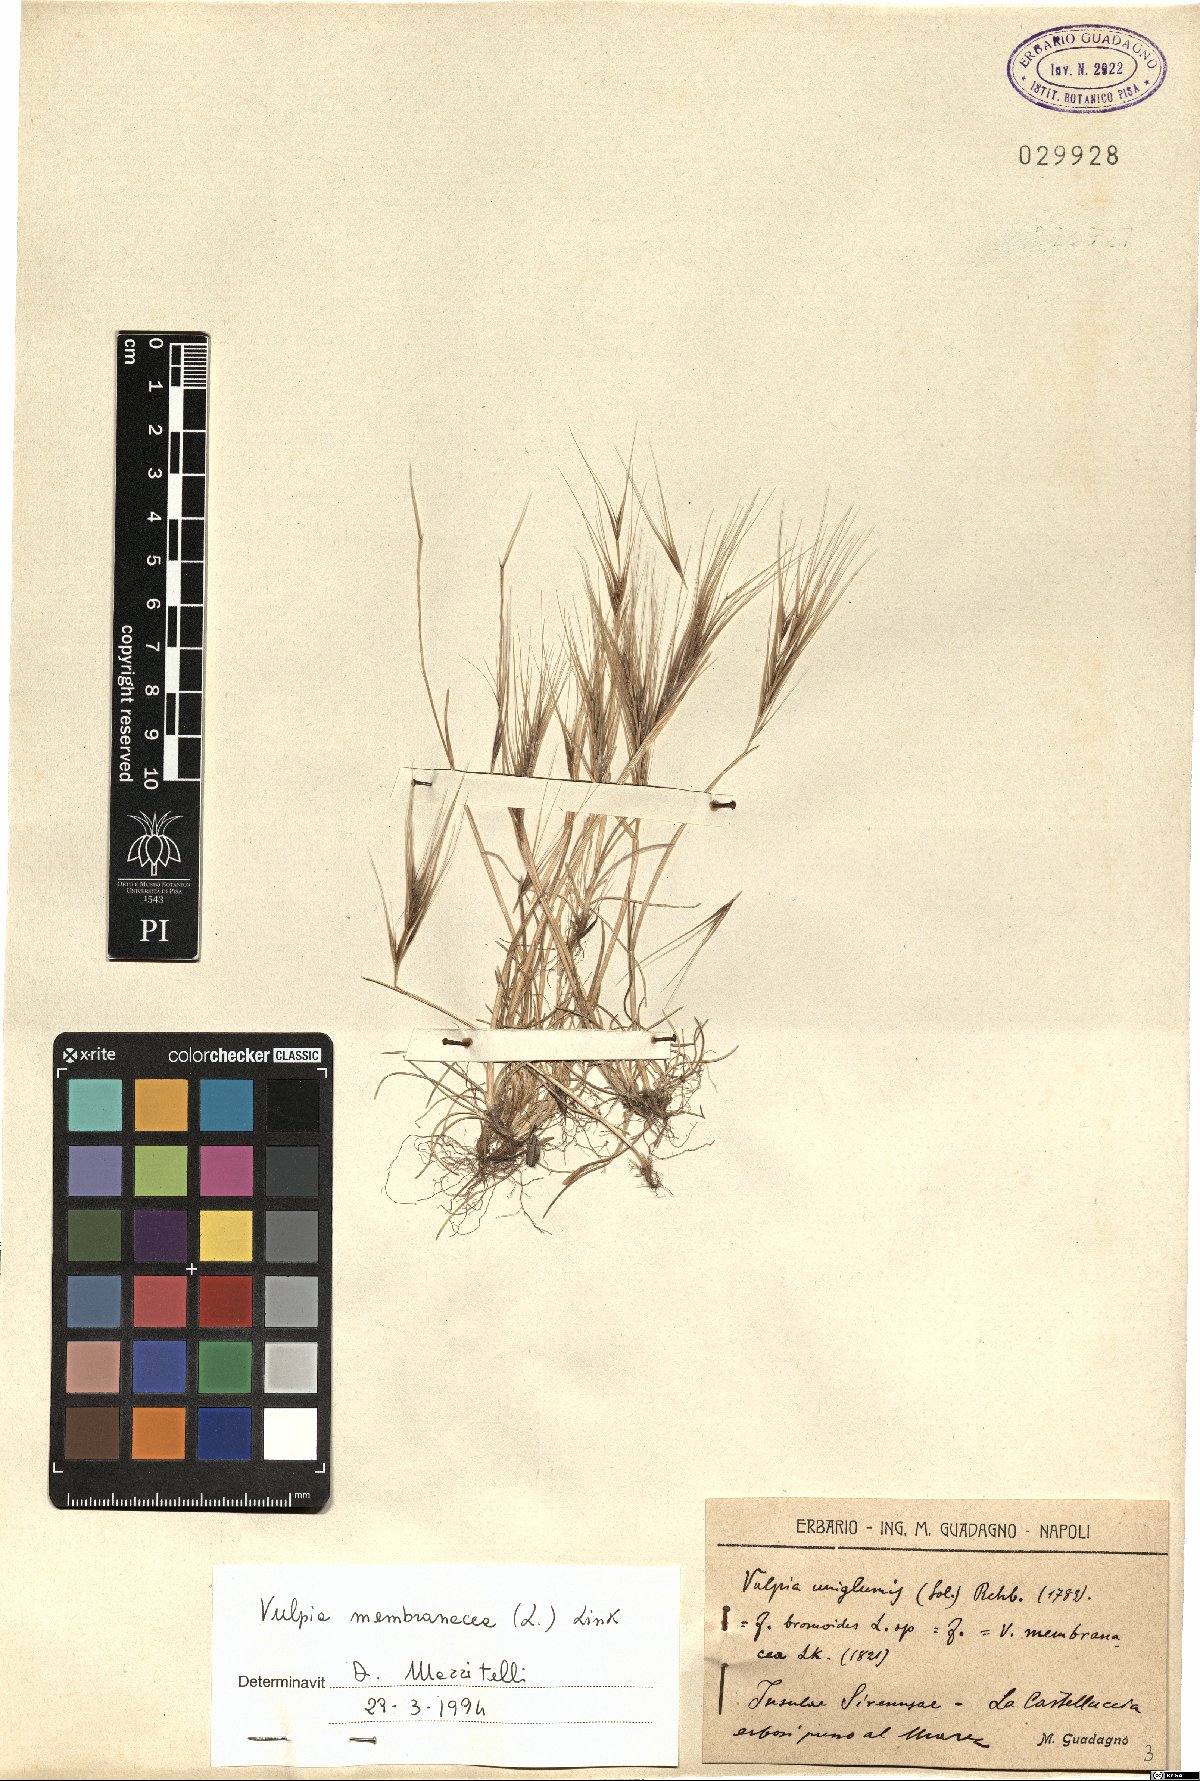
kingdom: Plantae
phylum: Tracheophyta
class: Liliopsida
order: Poales
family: Poaceae
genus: Festuca
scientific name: Festuca membranacea
